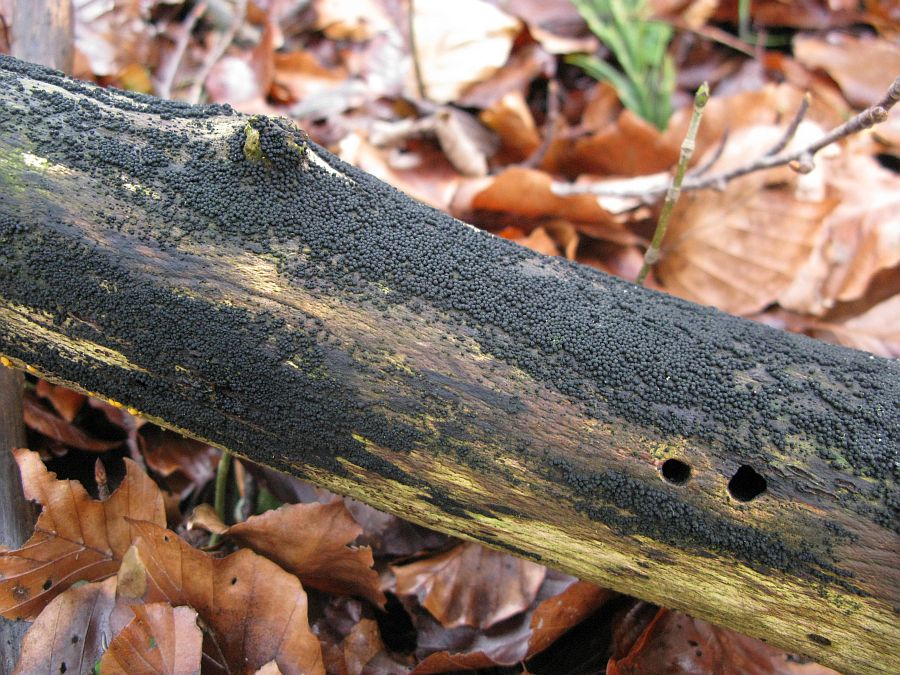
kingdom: Fungi
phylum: Ascomycota
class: Sordariomycetes
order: Coronophorales
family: Bertiaceae
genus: Bertia
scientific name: Bertia moriformis
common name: almindelig morbærkerne
